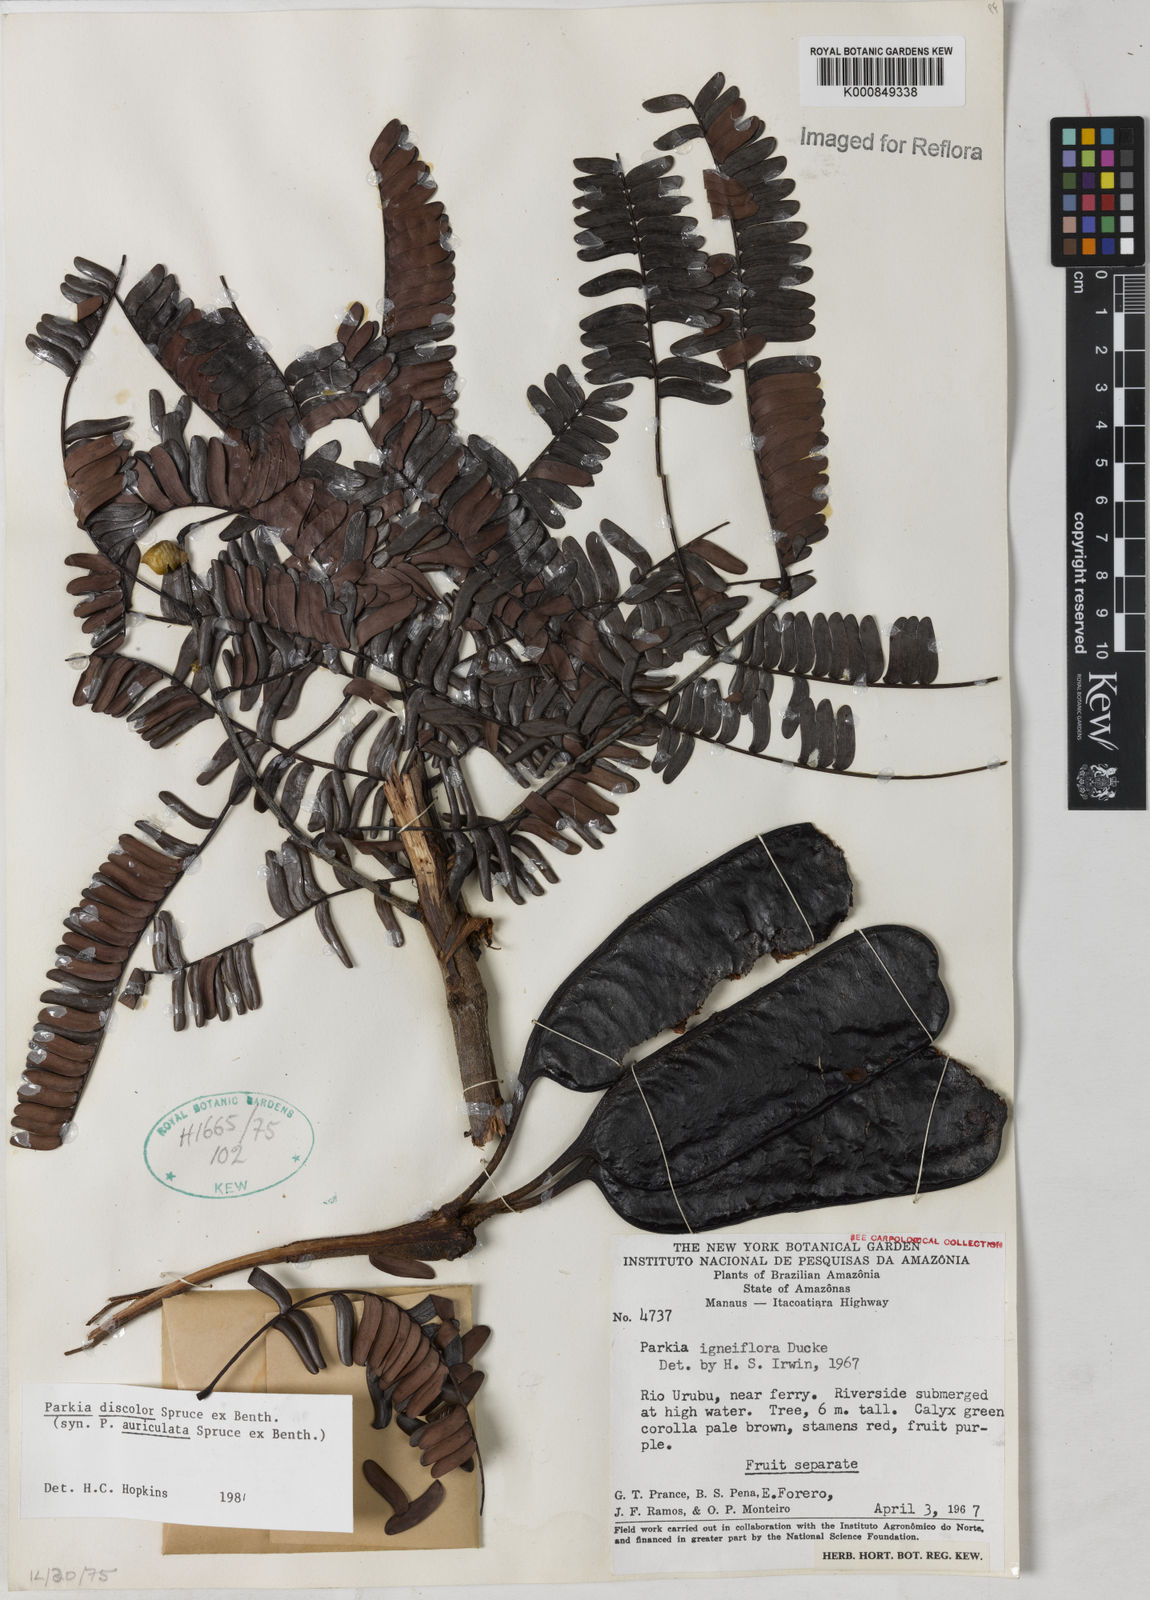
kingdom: Plantae
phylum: Tracheophyta
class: Magnoliopsida
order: Fabales
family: Fabaceae
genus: Parkia
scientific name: Parkia discolor
